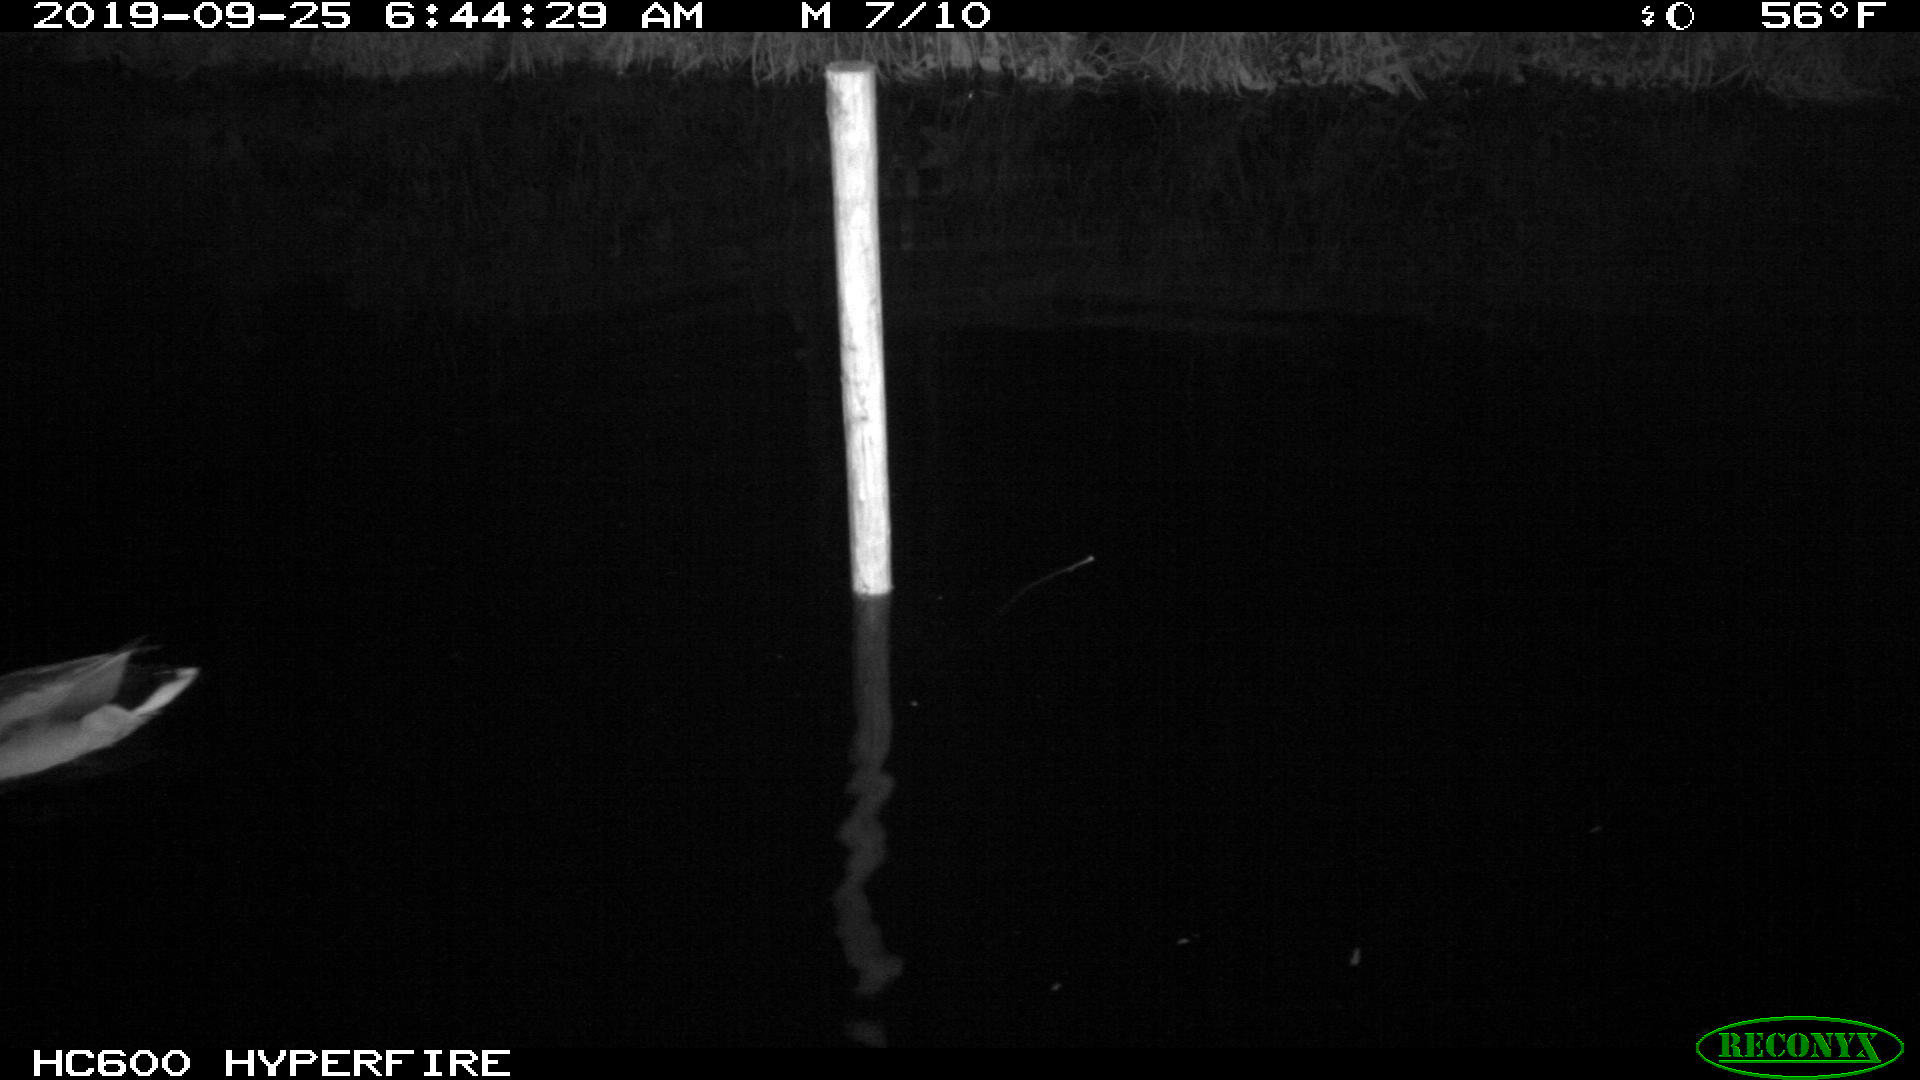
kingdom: Animalia
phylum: Chordata
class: Aves
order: Anseriformes
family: Anatidae
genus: Anas
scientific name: Anas platyrhynchos
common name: Mallard
